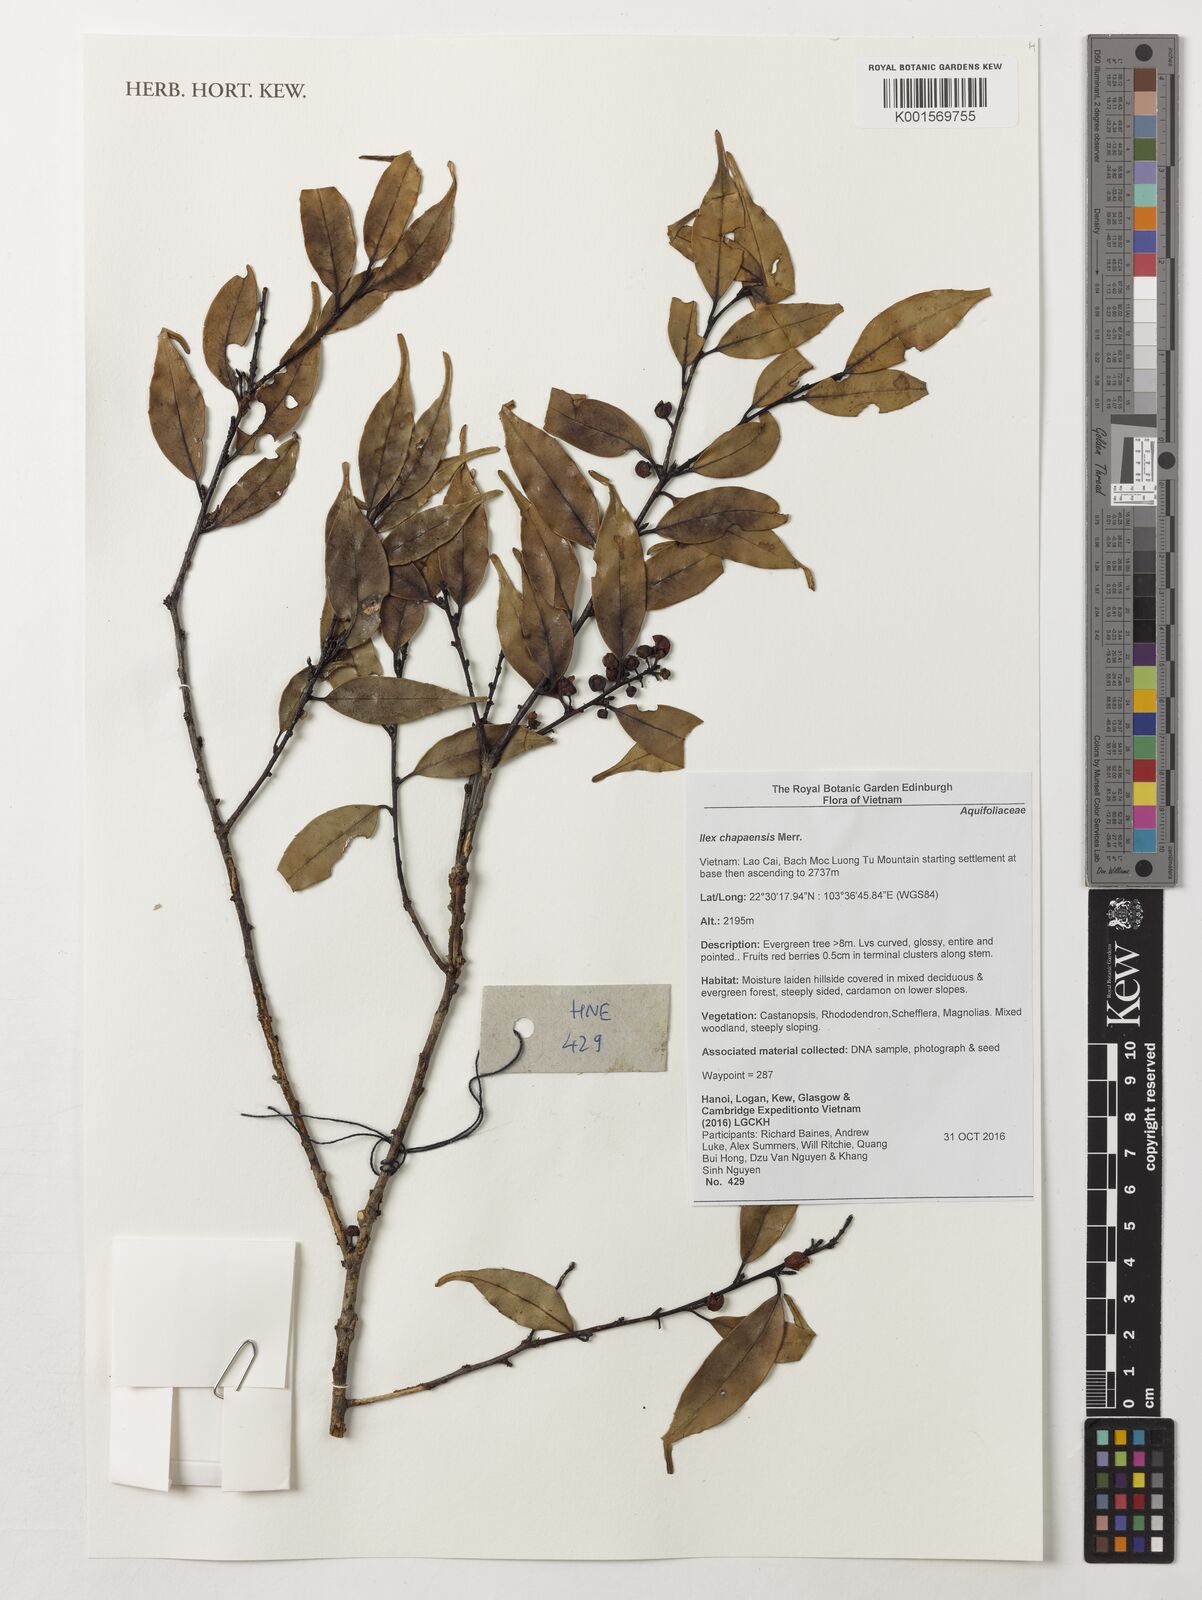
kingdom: Plantae
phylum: Tracheophyta
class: Magnoliopsida
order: Aquifoliales
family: Aquifoliaceae
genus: Ilex
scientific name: Ilex chapaensis
